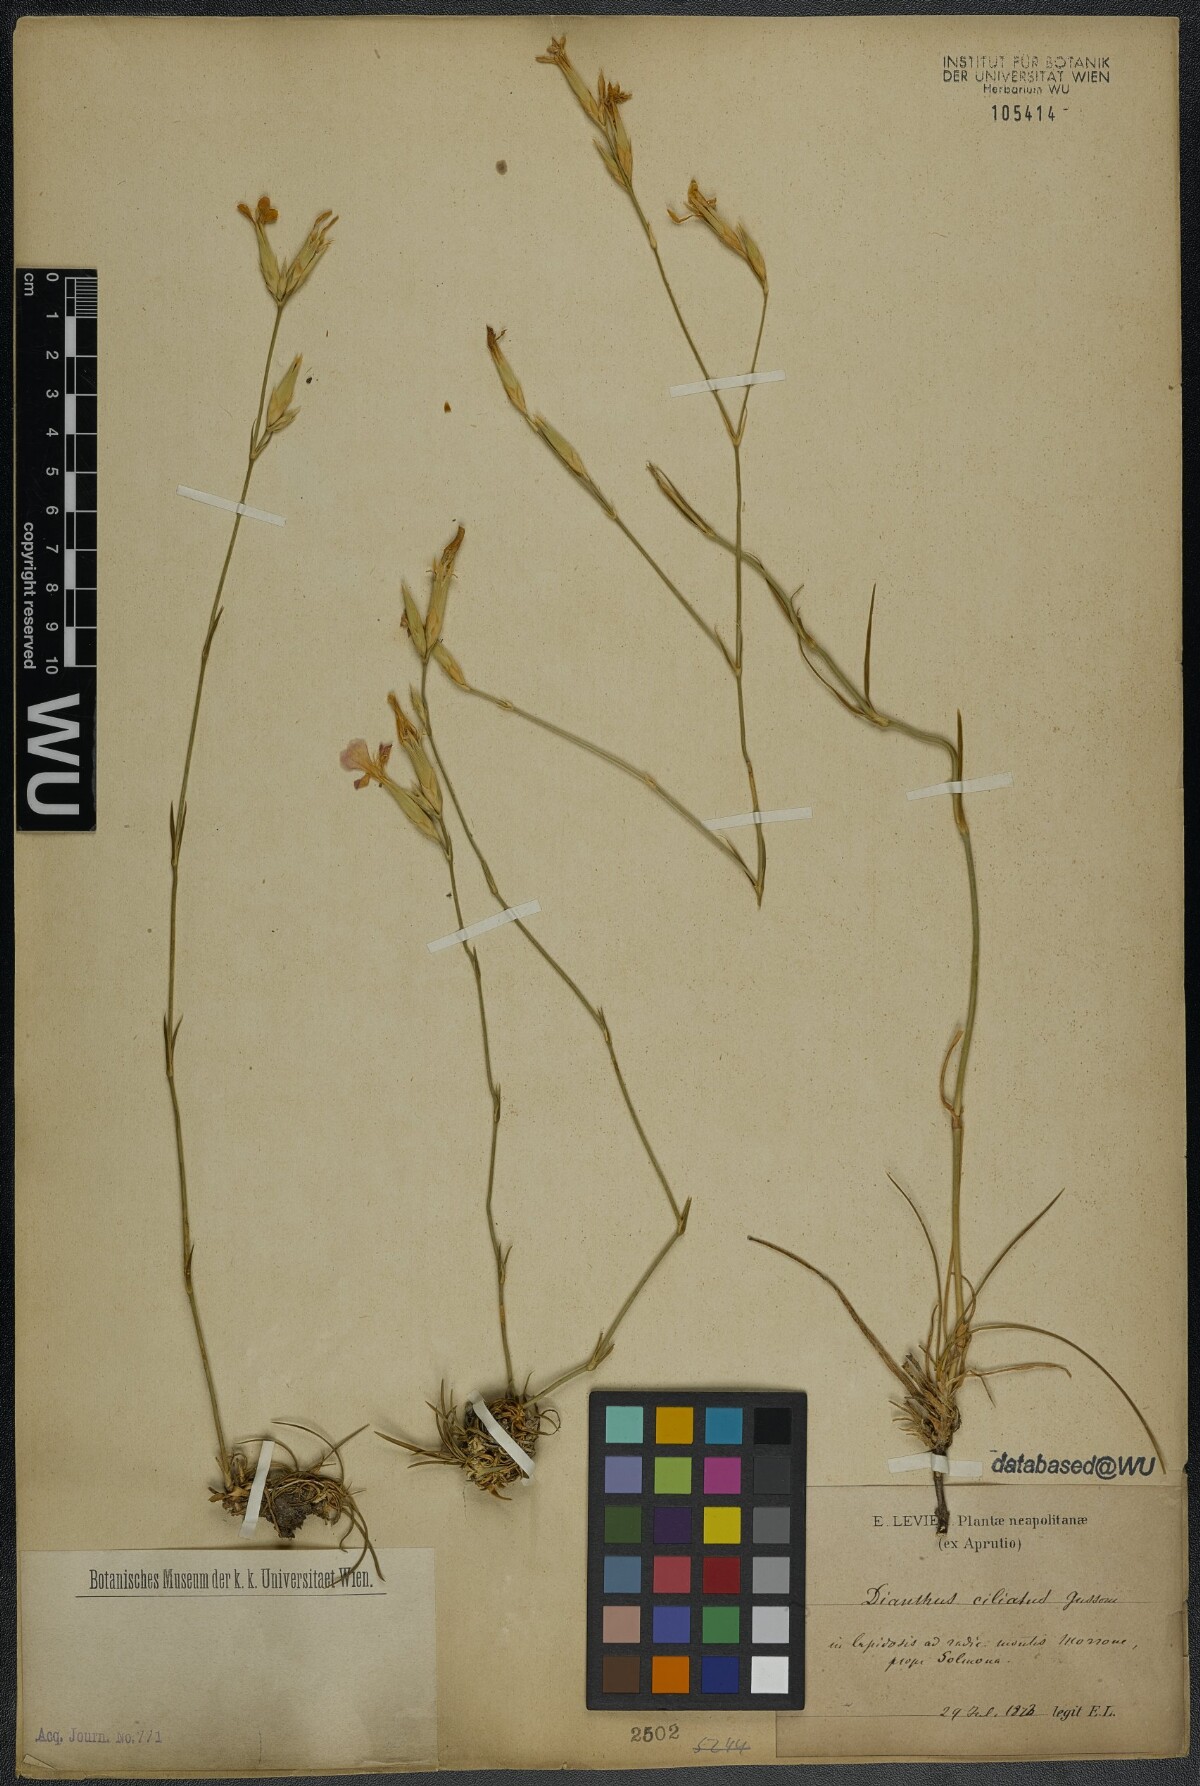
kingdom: Plantae
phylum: Tracheophyta
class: Magnoliopsida
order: Caryophyllales
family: Caryophyllaceae
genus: Dianthus
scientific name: Dianthus ciliatus
